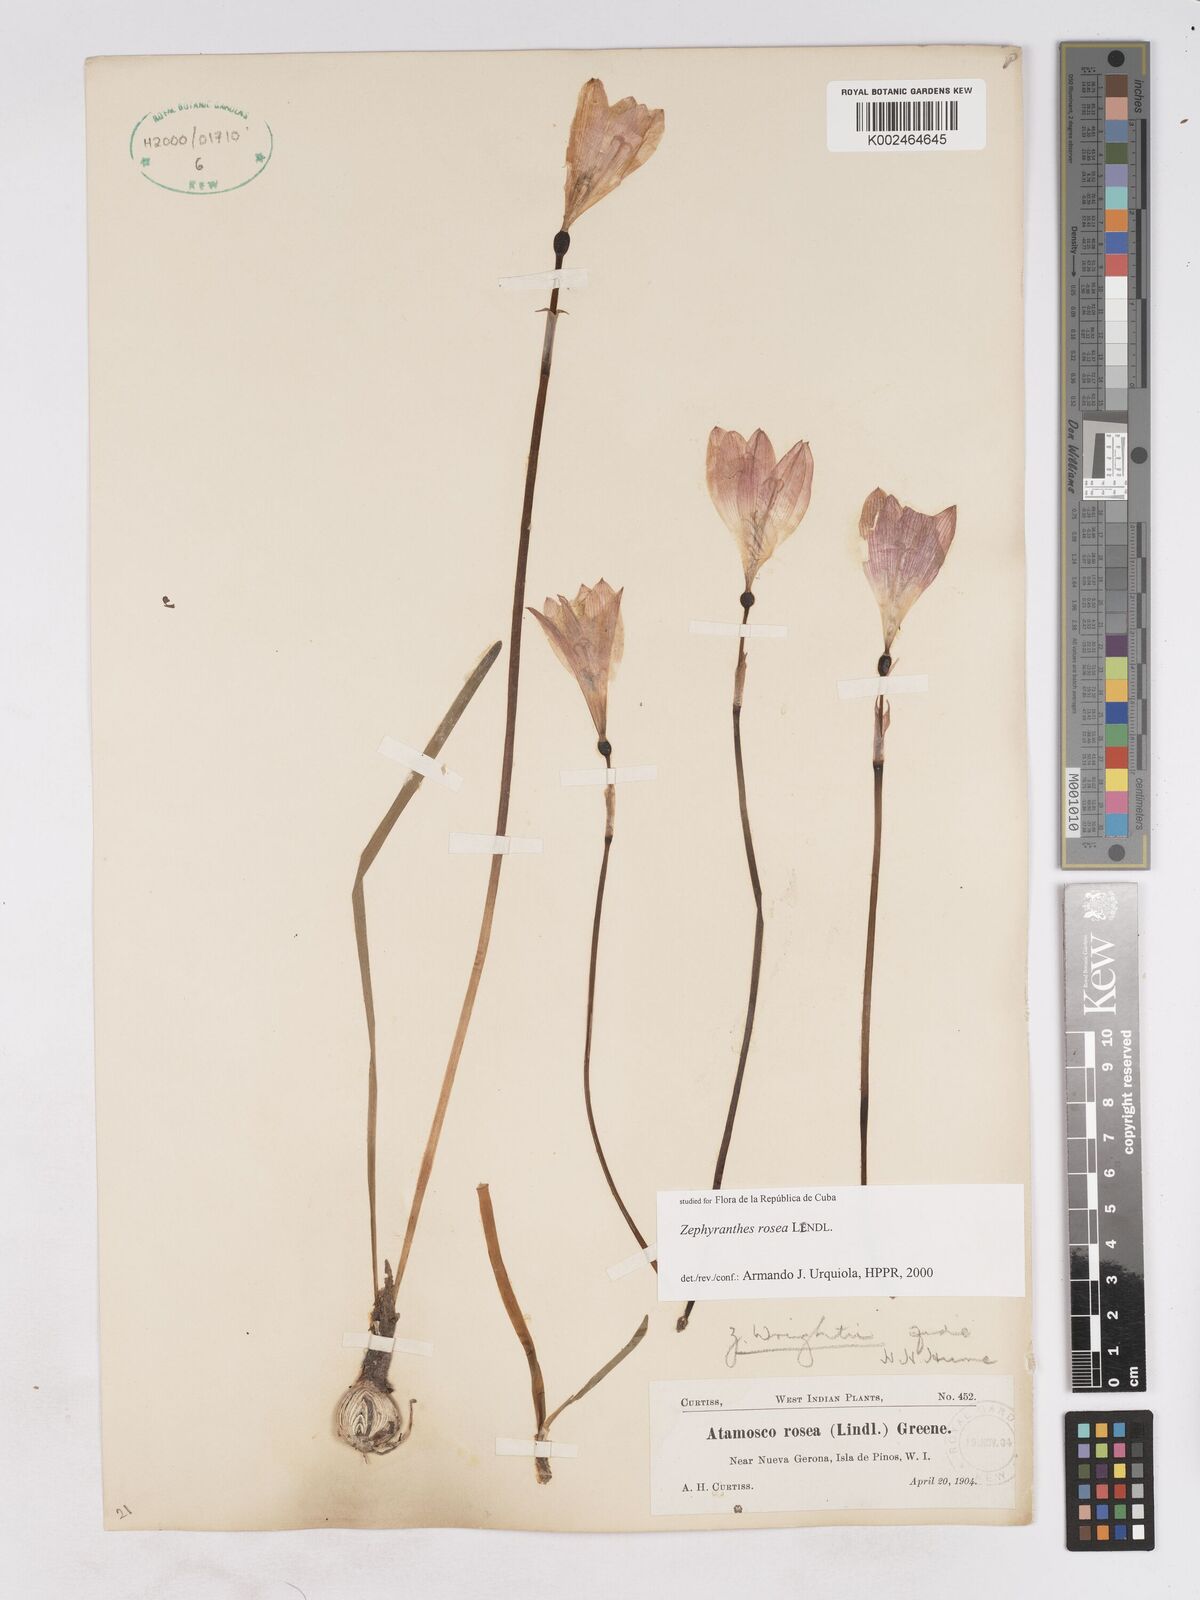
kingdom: Plantae
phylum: Tracheophyta
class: Liliopsida
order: Asparagales
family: Amaryllidaceae
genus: Zephyranthes
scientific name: Zephyranthes rosea
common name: Cuban zephyrlily
